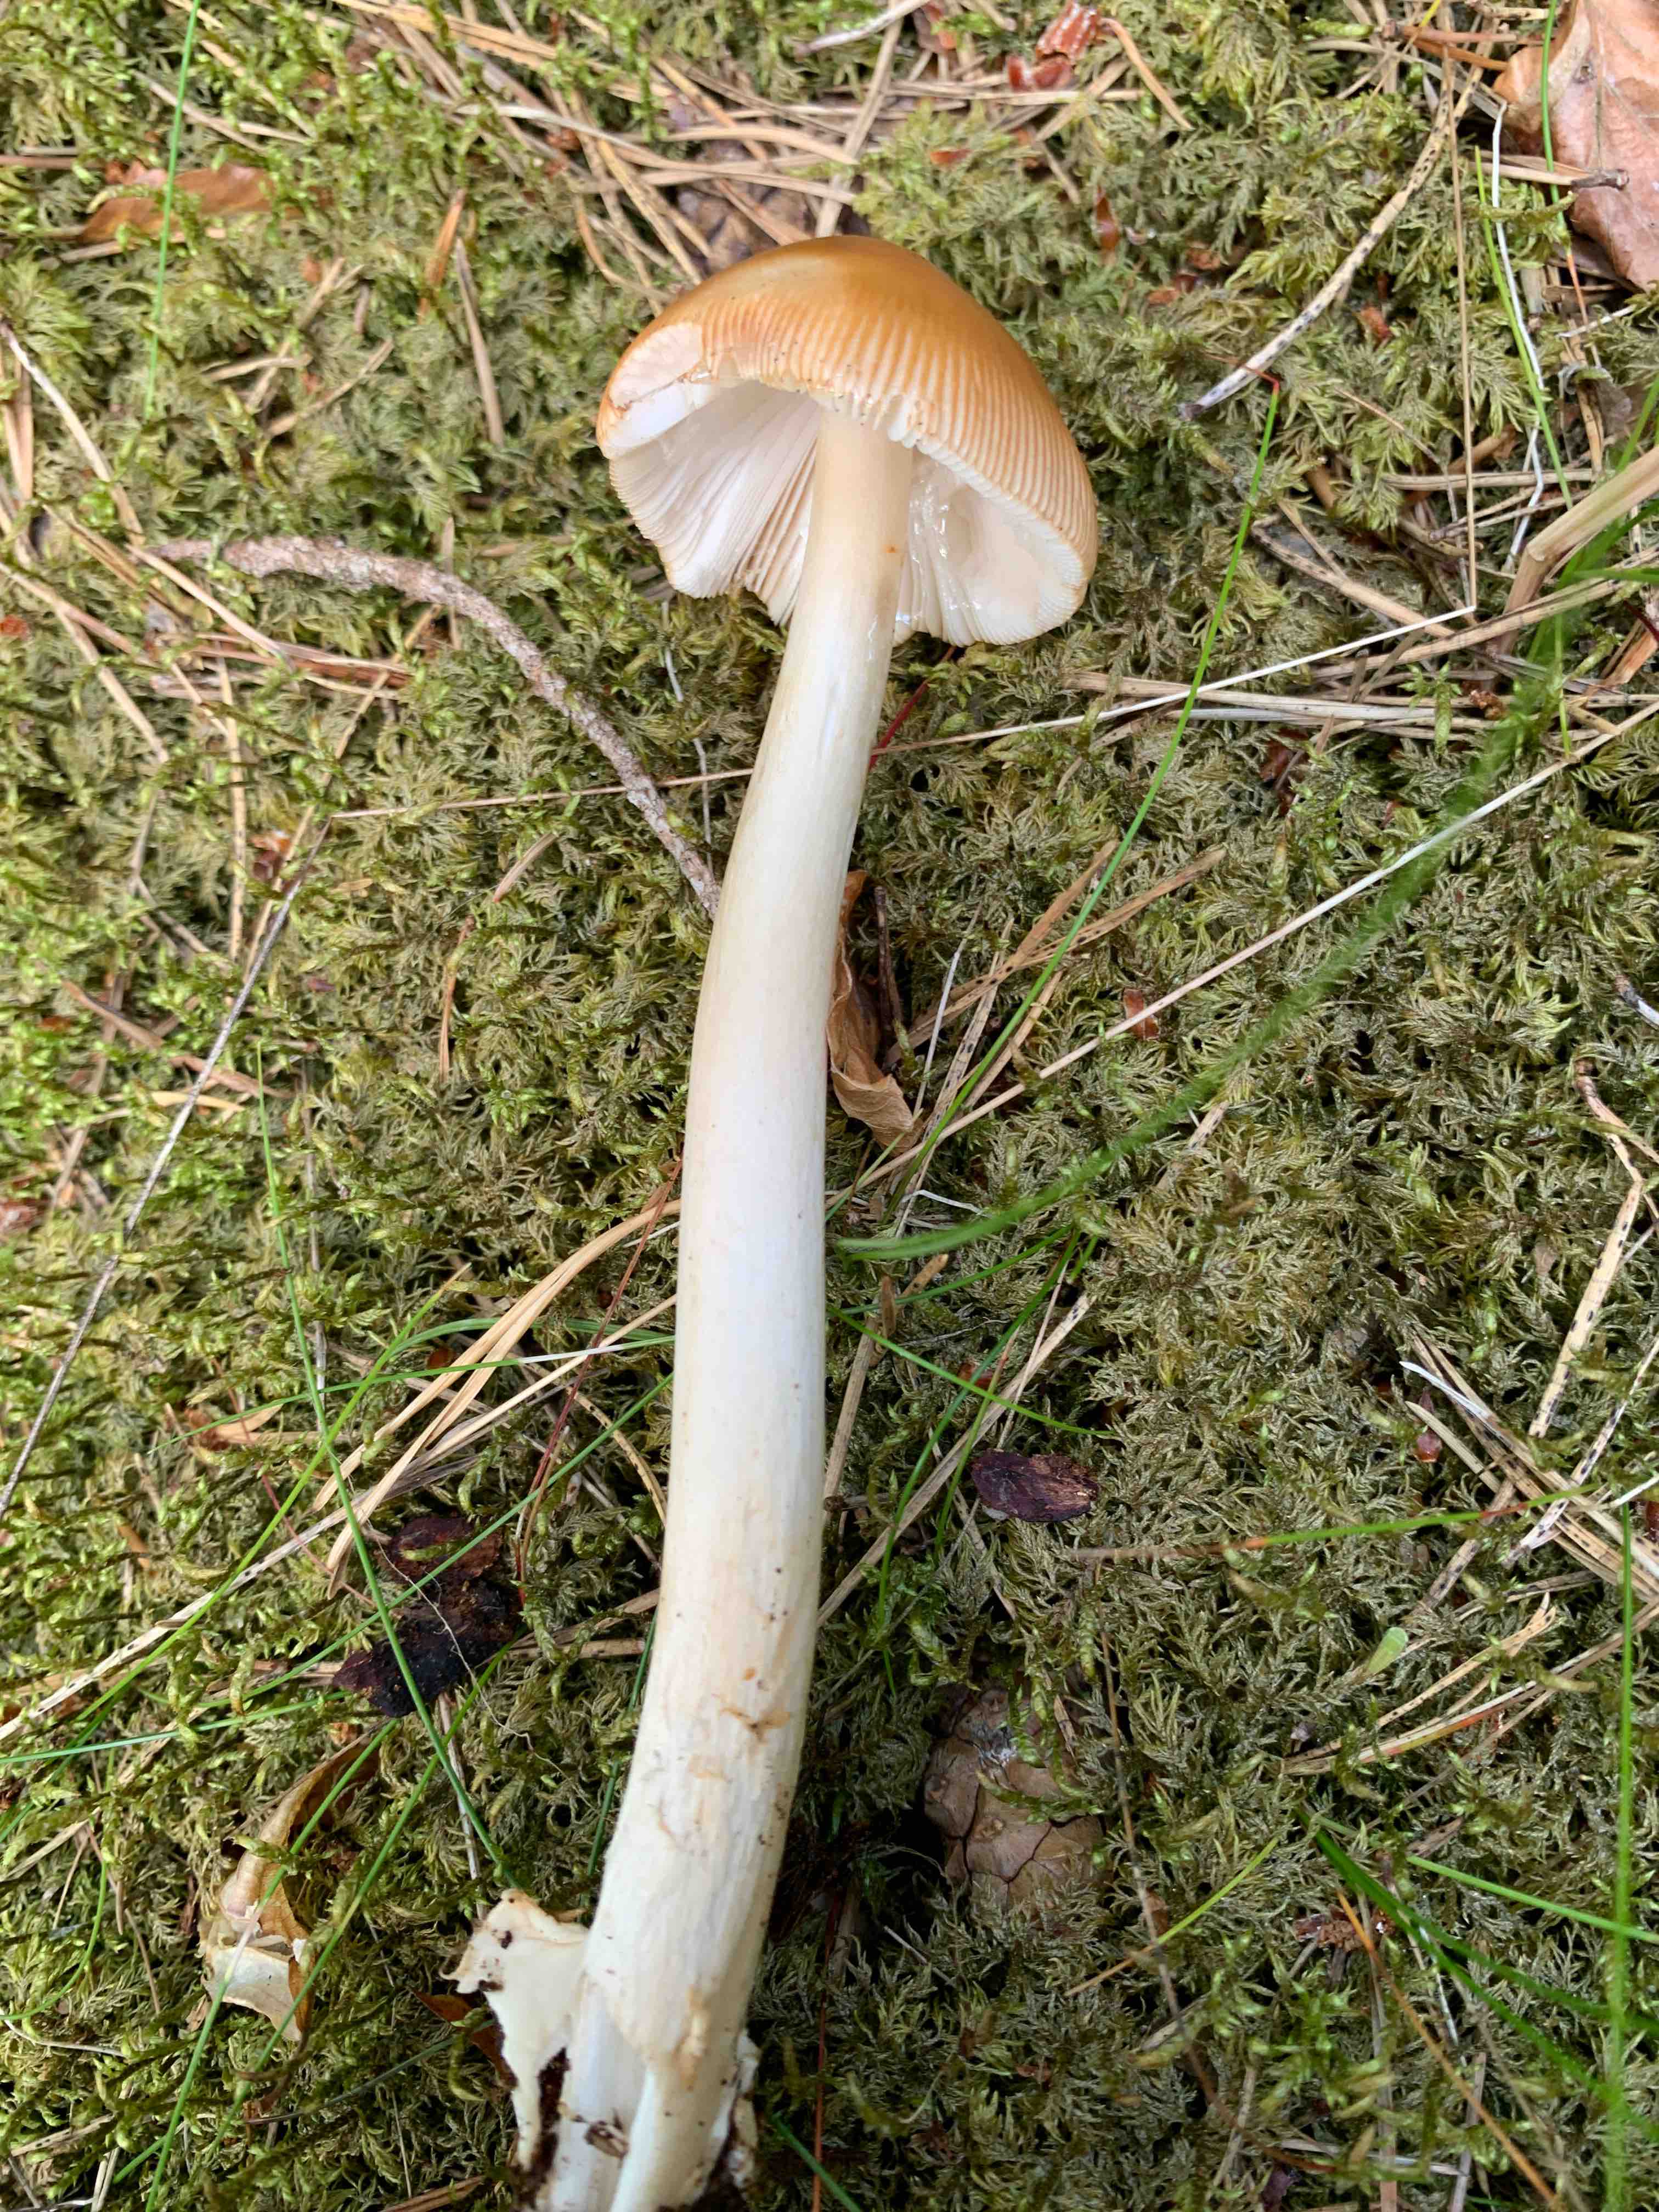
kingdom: Fungi
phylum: Basidiomycota
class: Agaricomycetes
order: Agaricales
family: Amanitaceae
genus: Amanita
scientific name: Amanita fulva
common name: brun kam-fluesvamp
